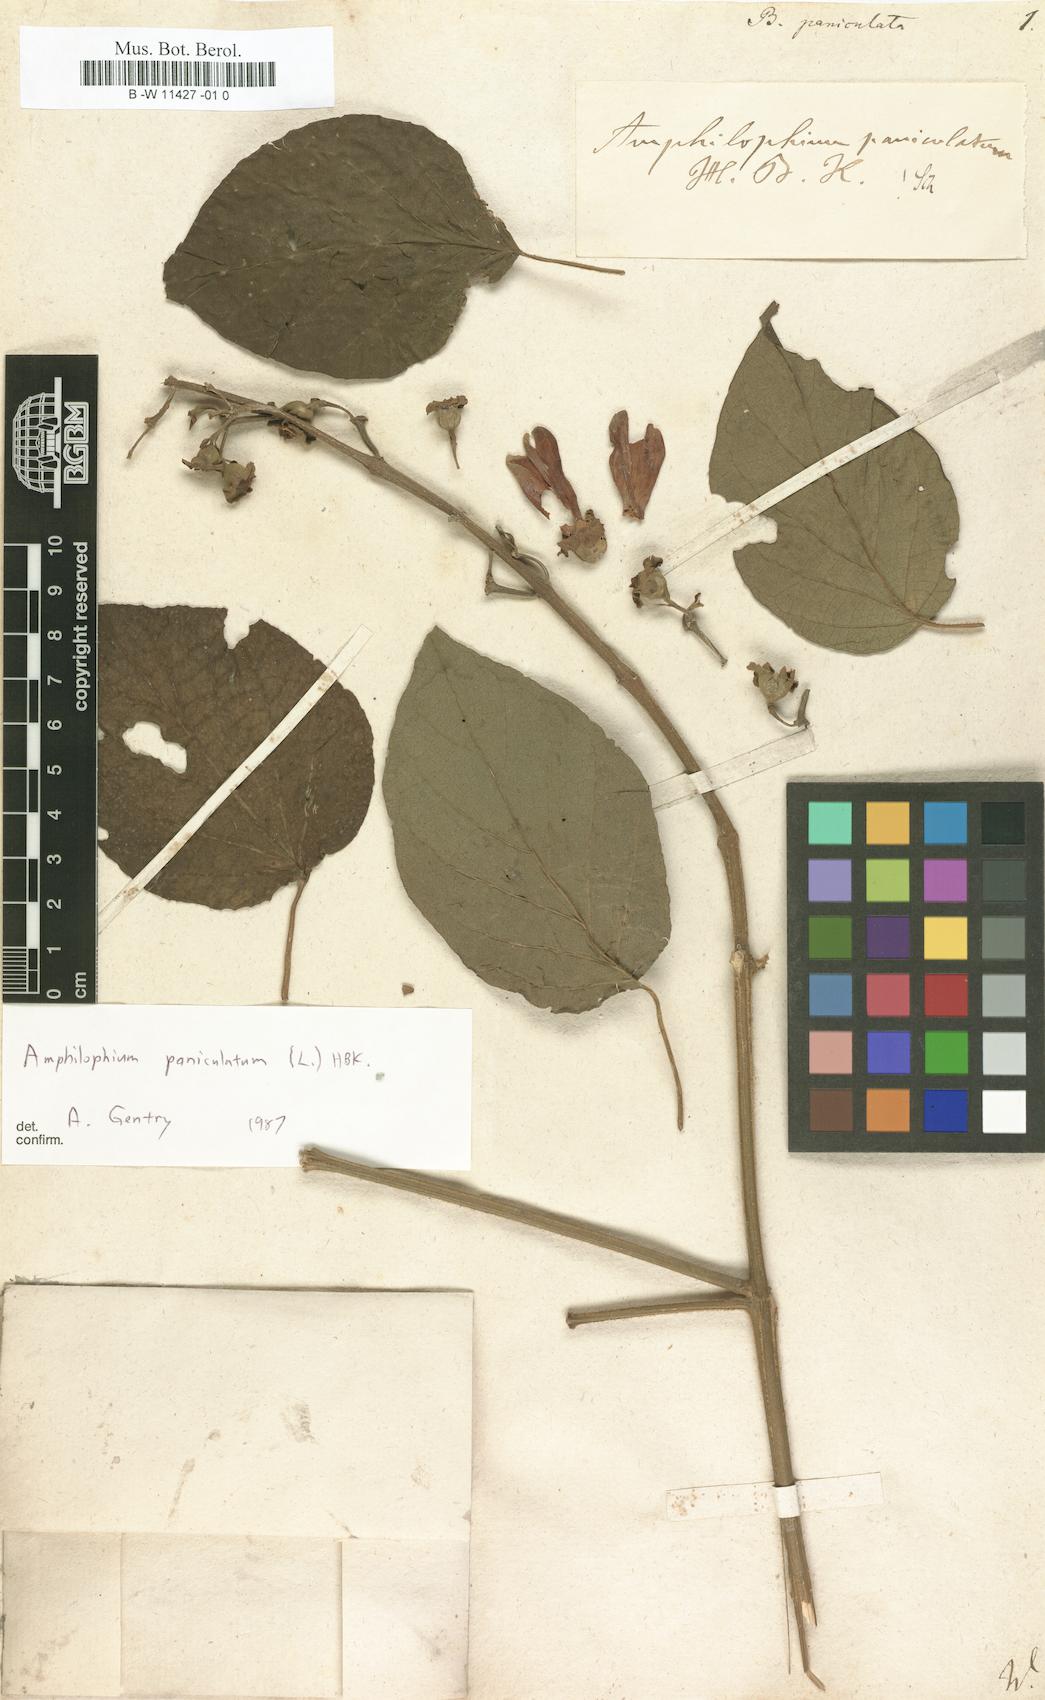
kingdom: Plantae
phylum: Tracheophyta
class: Magnoliopsida
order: Lamiales
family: Bignoniaceae
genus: Amphilophium
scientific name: Amphilophium paniculatum
